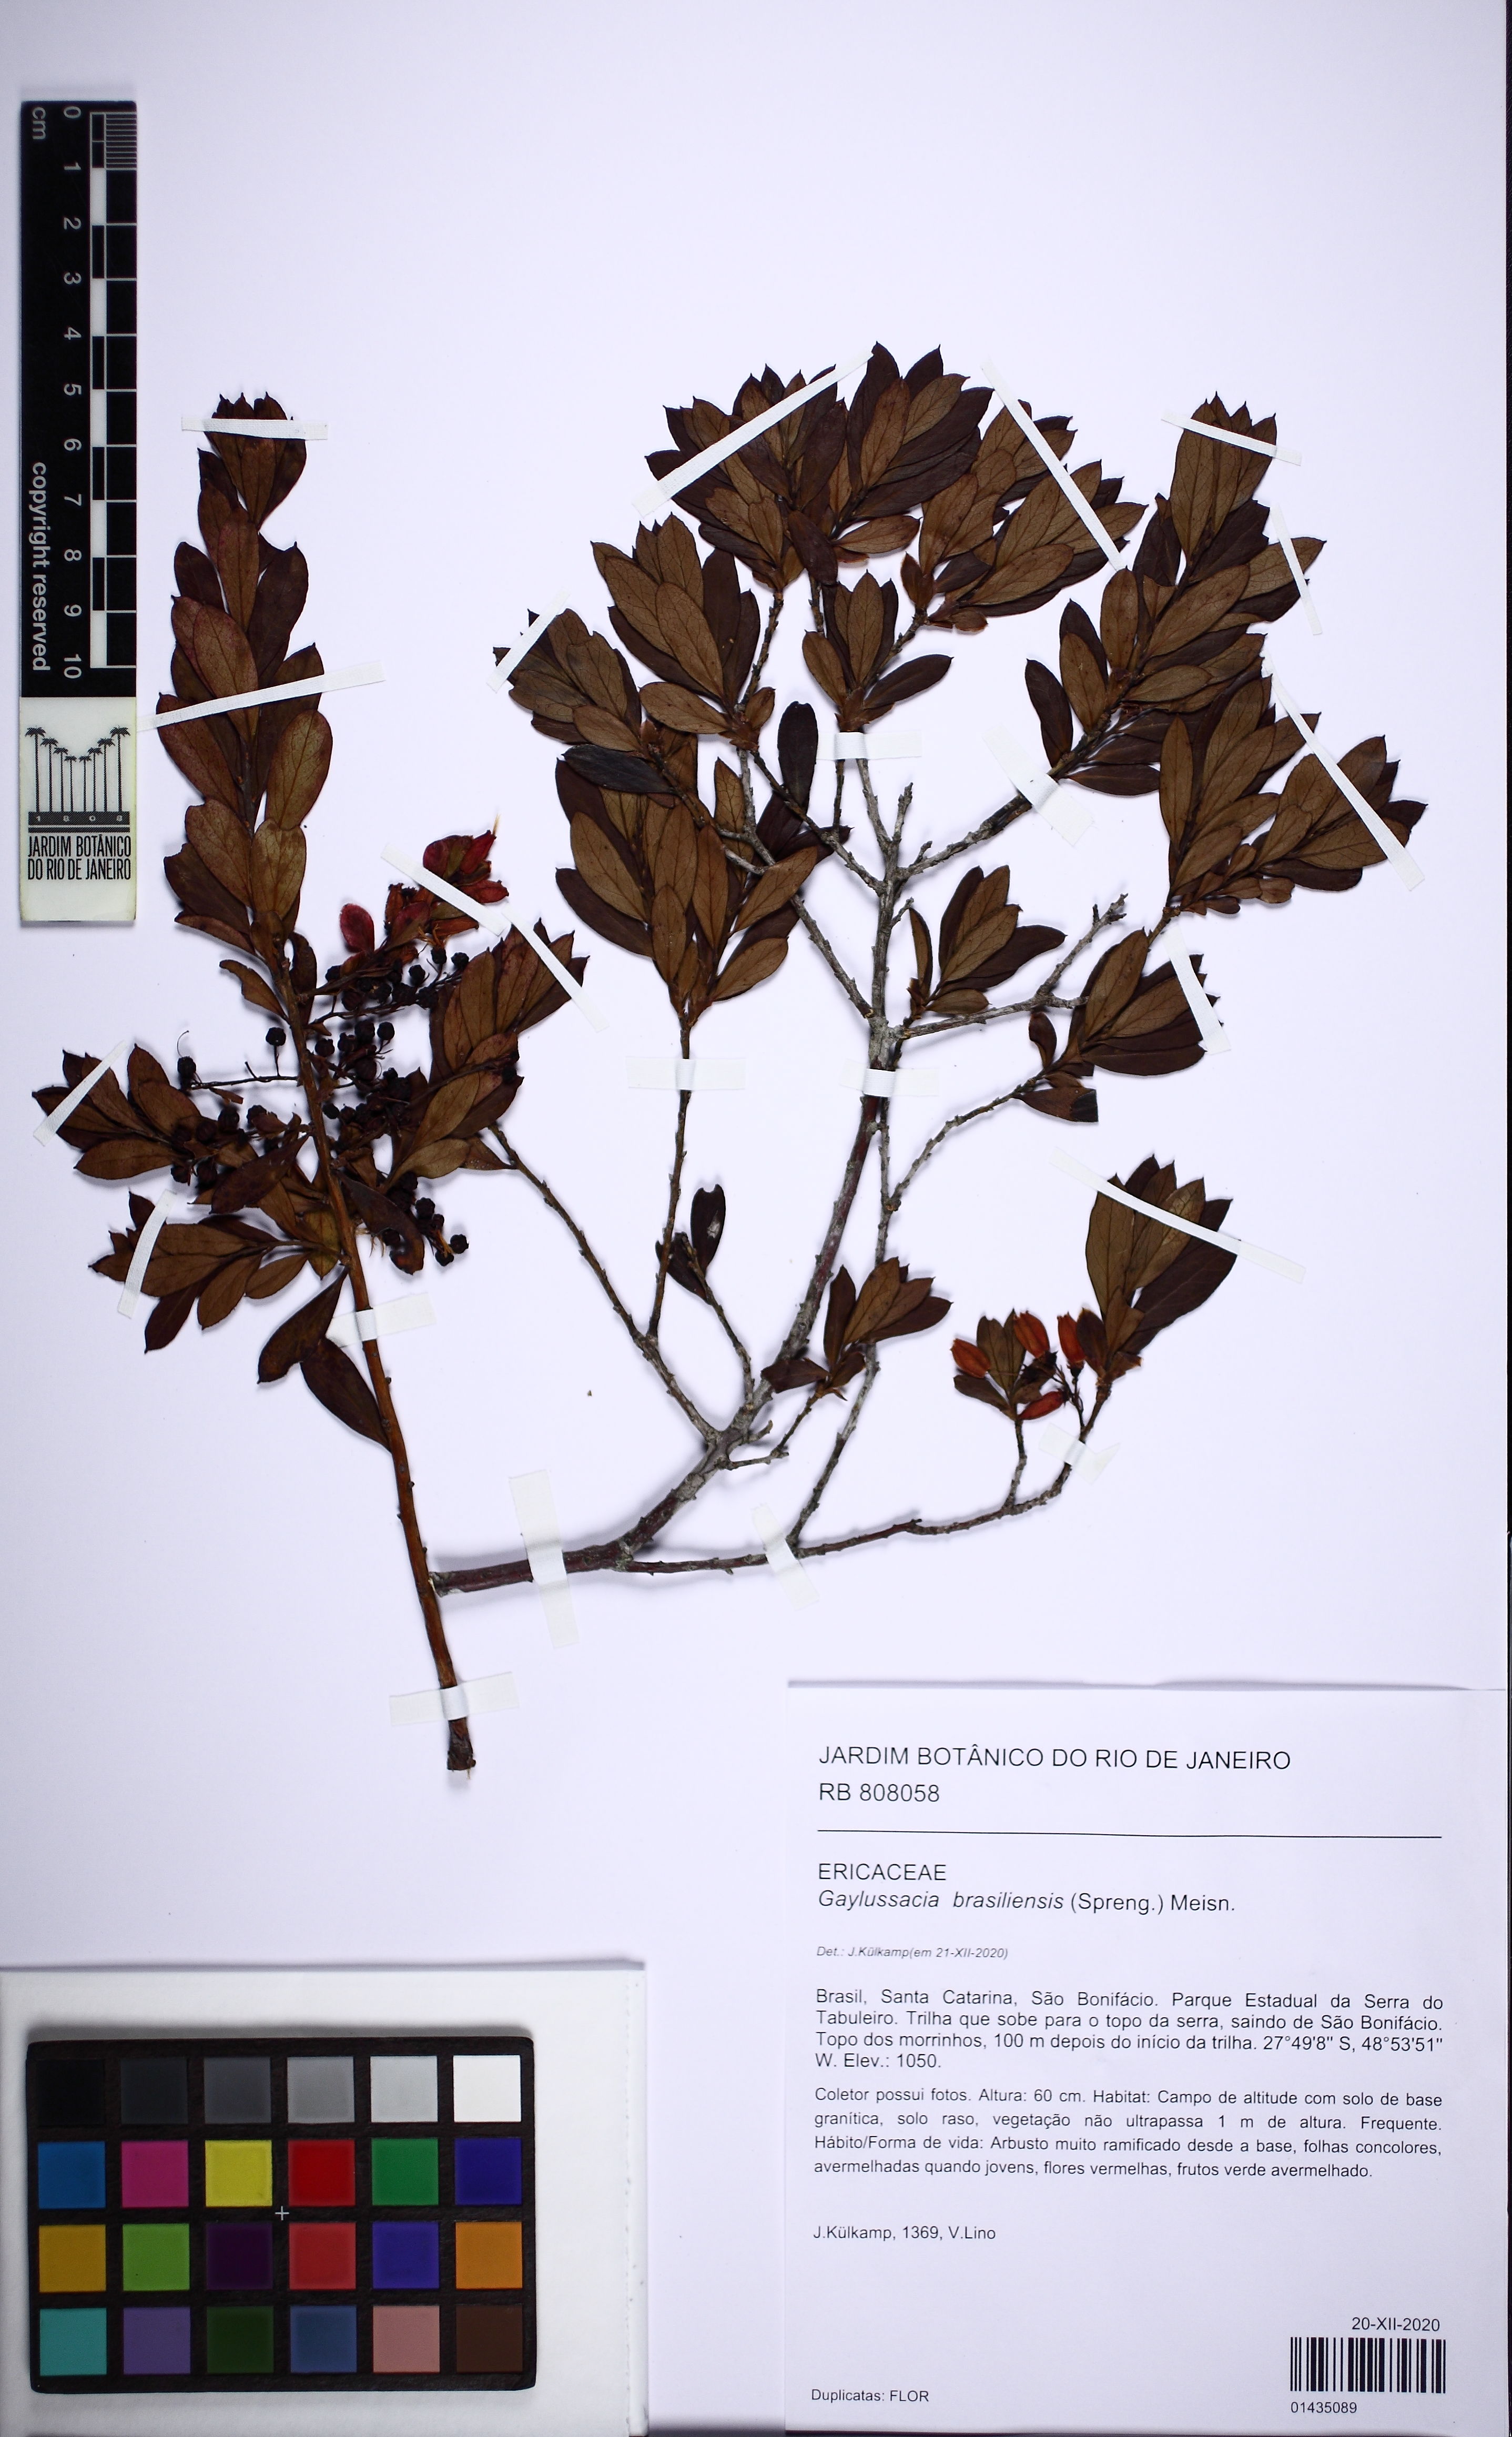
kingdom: Plantae
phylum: Tracheophyta
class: Magnoliopsida
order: Ericales
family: Ericaceae
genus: Gaylussacia
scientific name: Gaylussacia brasiliensis
